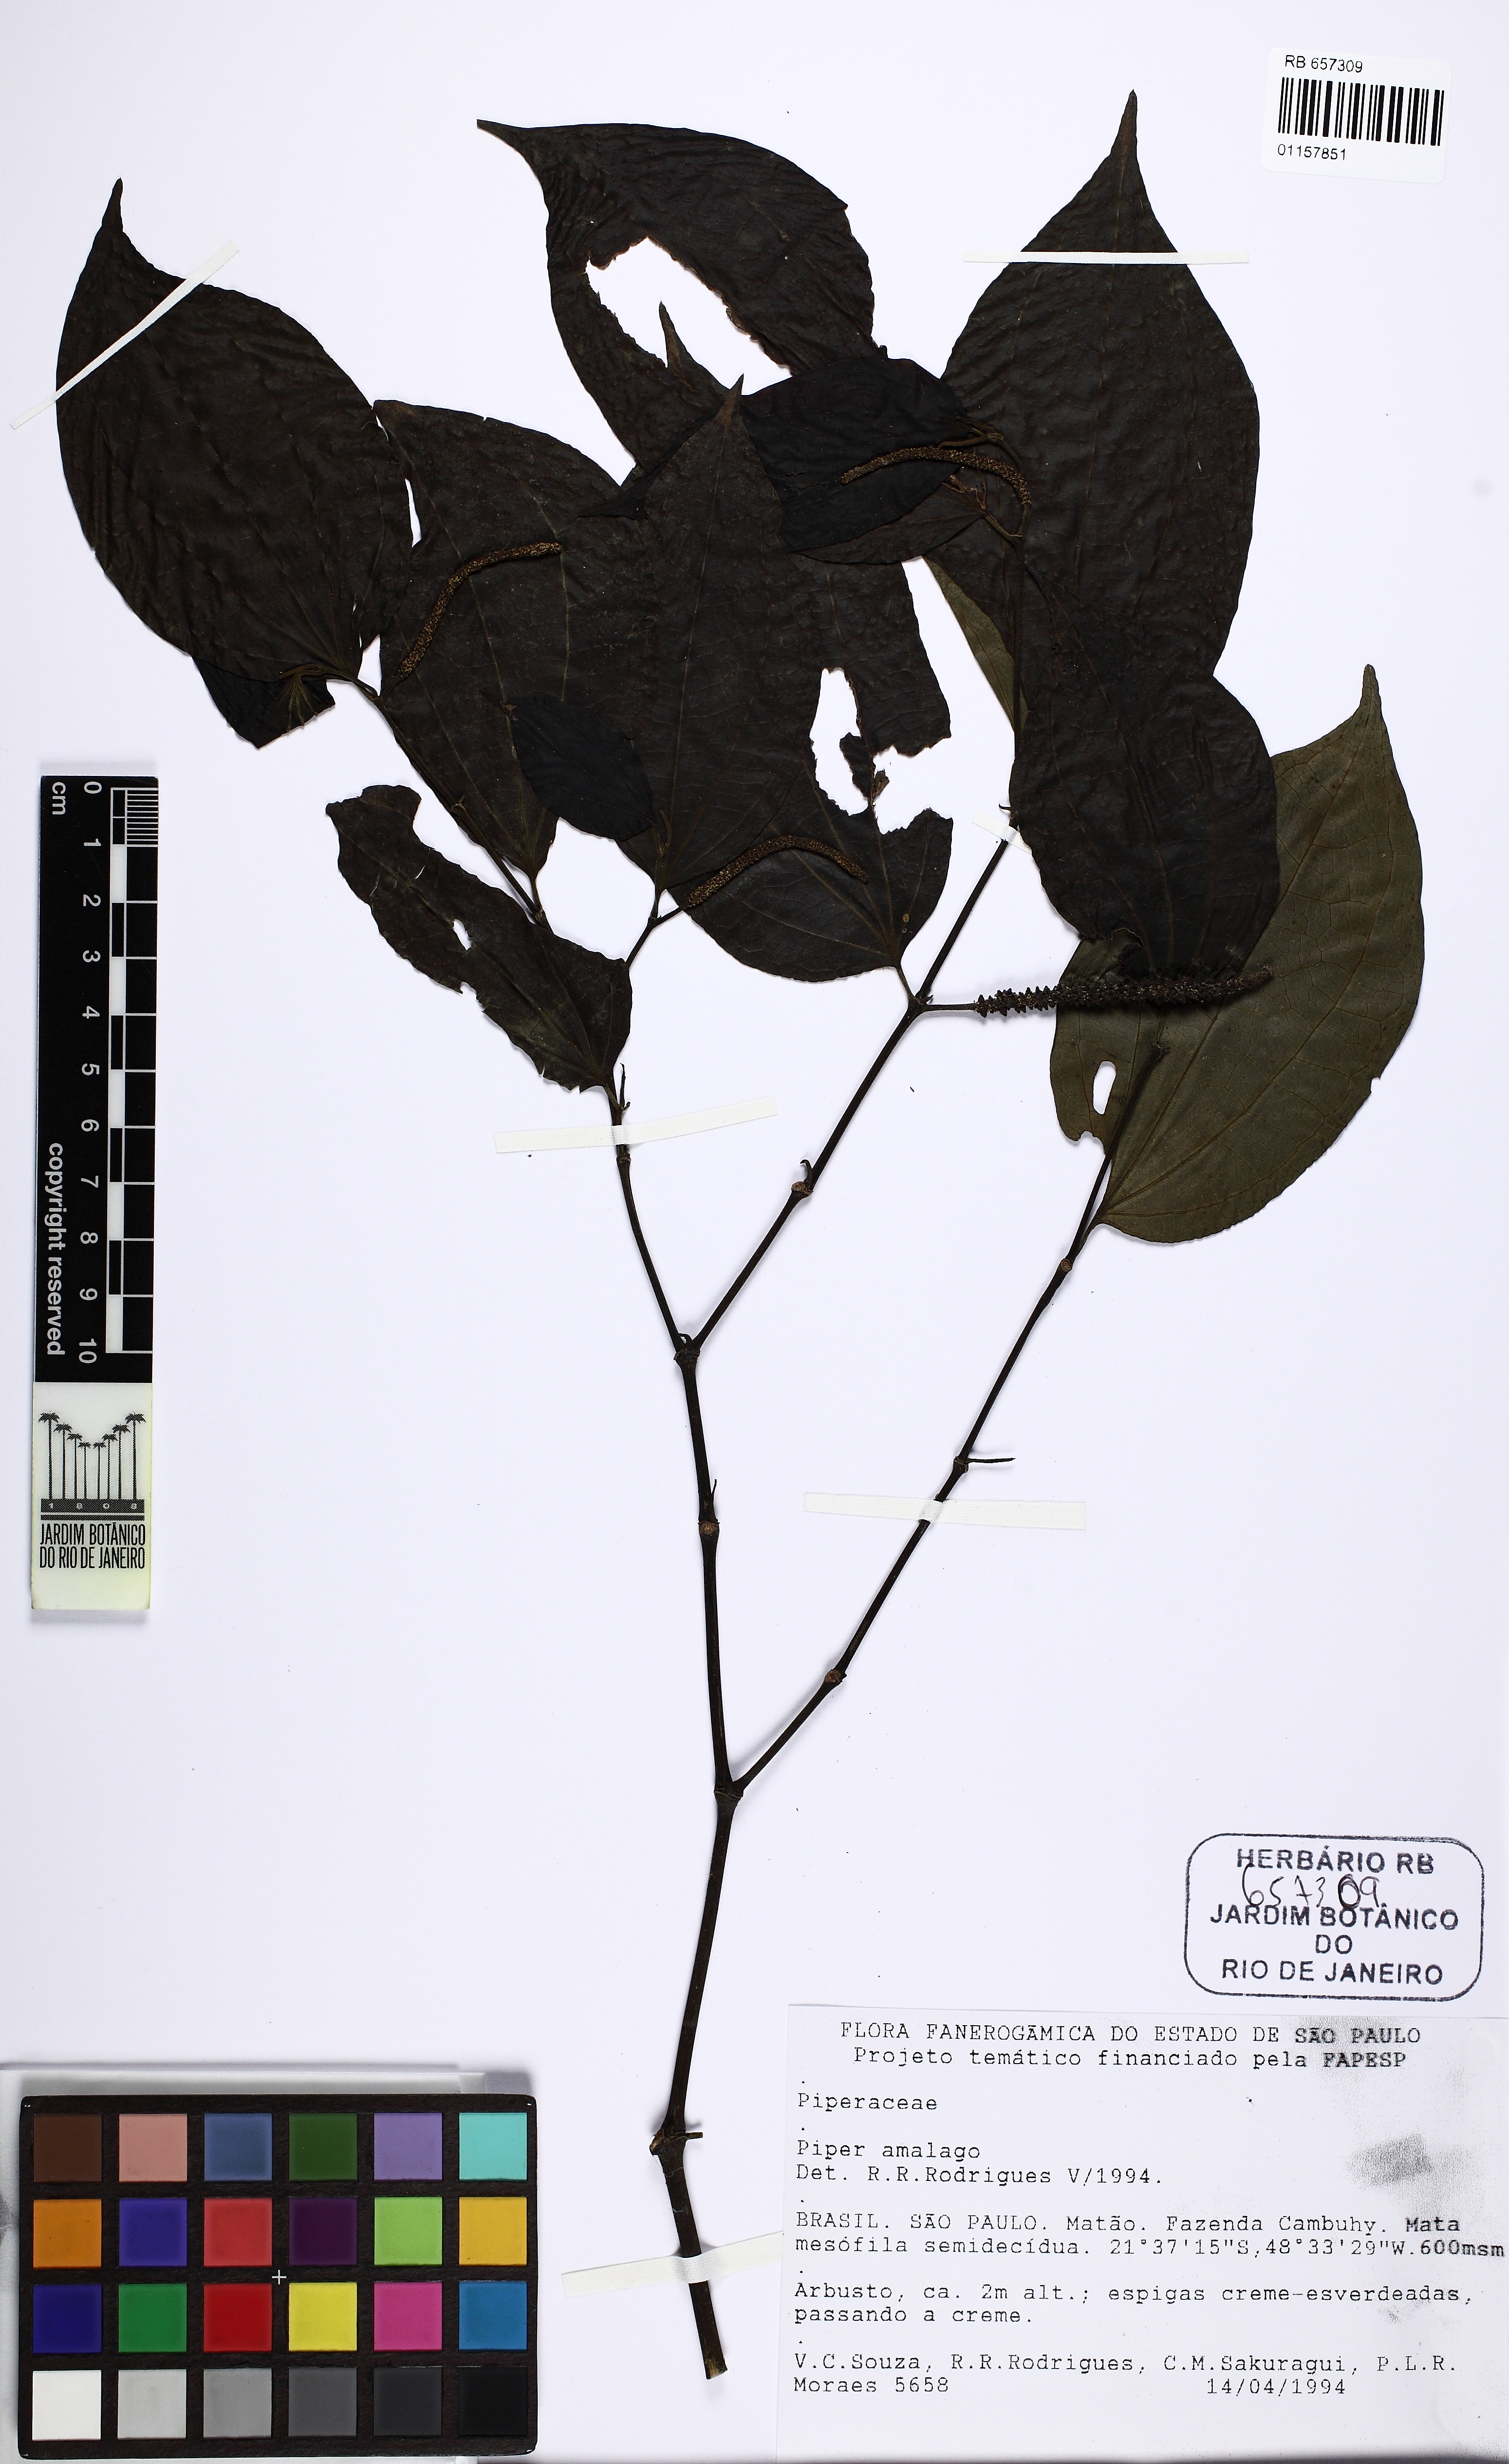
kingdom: Plantae
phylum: Tracheophyta
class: Magnoliopsida
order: Piperales
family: Piperaceae
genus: Piper
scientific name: Piper amalago
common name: Pepper-elder
